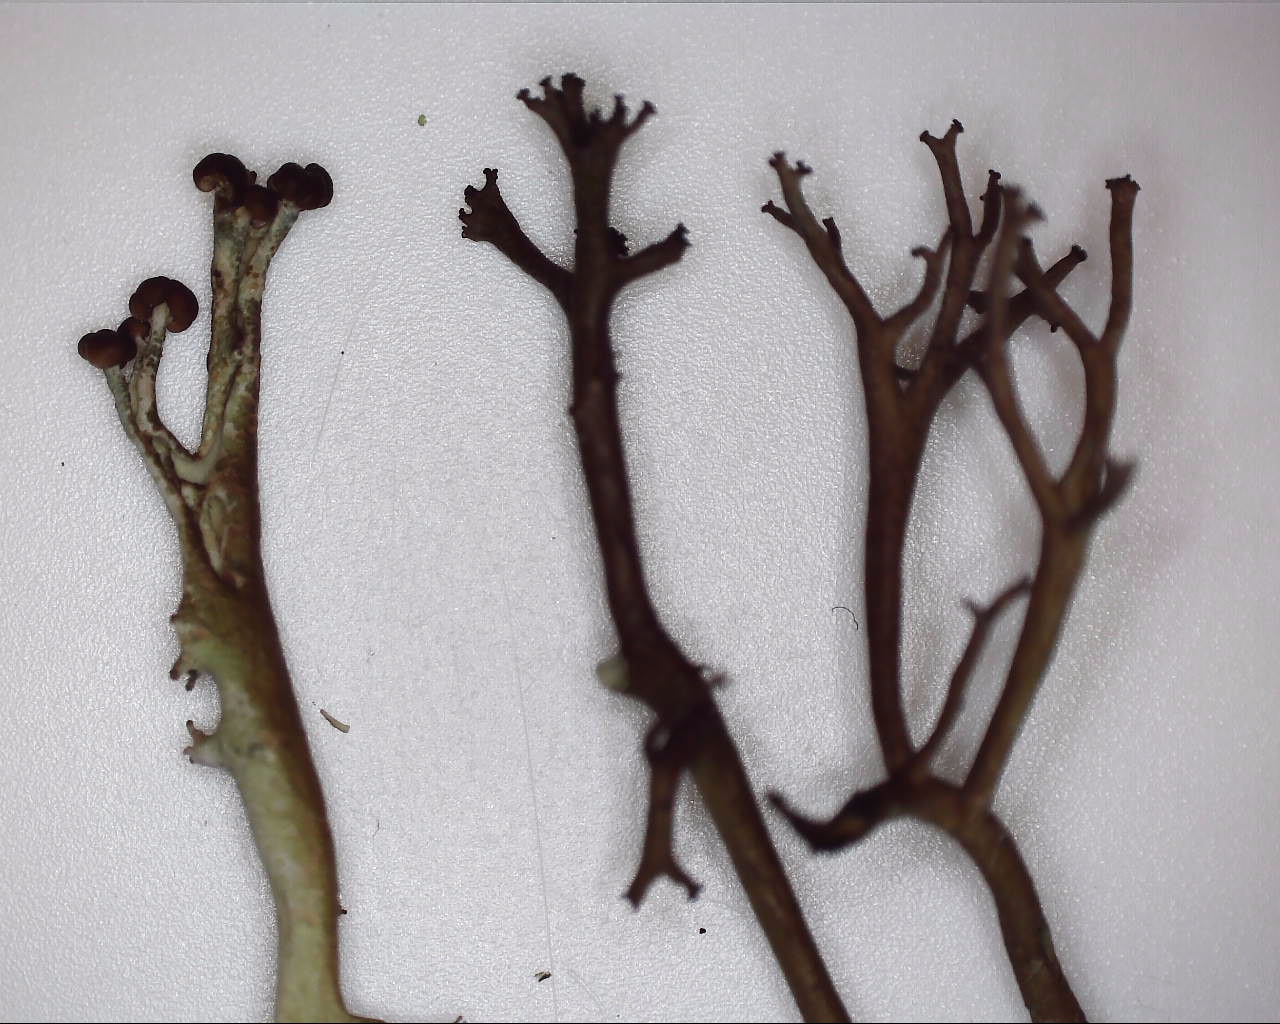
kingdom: Fungi
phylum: Ascomycota
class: Lecanoromycetes
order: Lecanorales
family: Cladoniaceae
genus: Cladonia
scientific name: Cladonia furcata
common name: kløftet bægerlav
